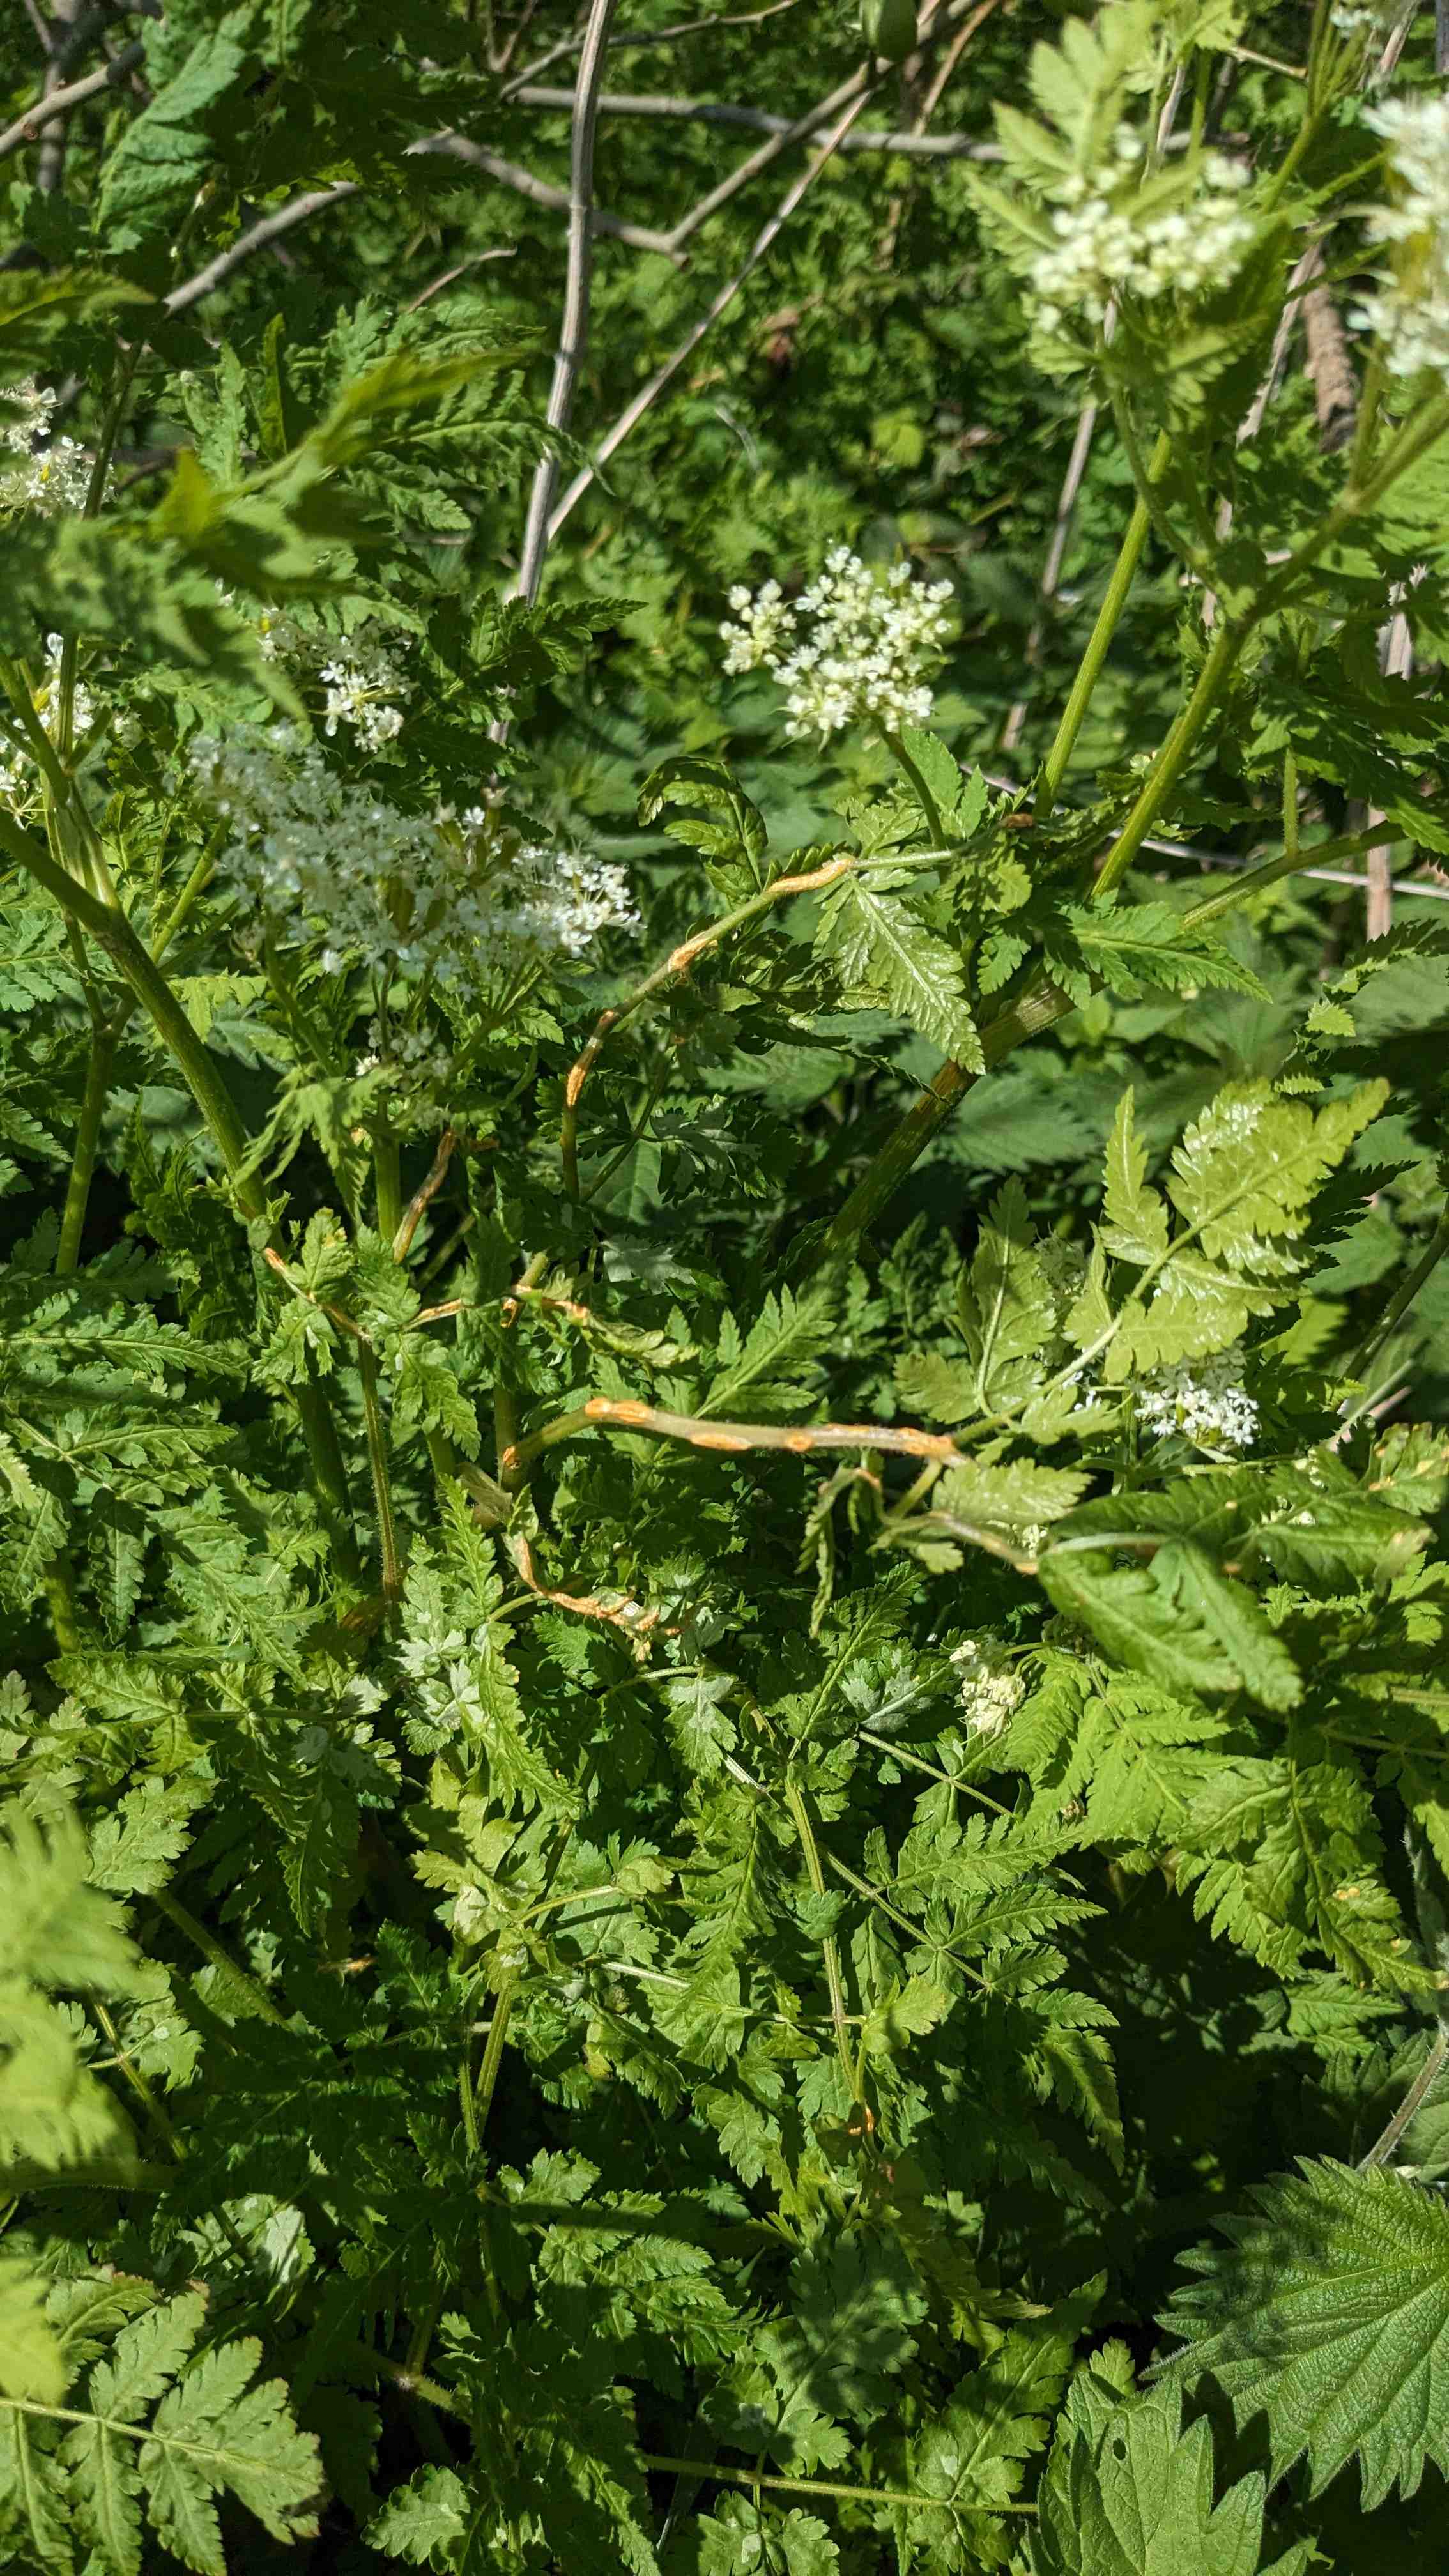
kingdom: Fungi
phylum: Basidiomycota
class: Pucciniomycetes
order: Pucciniales
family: Pucciniaceae
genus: Puccinia
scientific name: Puccinia chaerophylli
